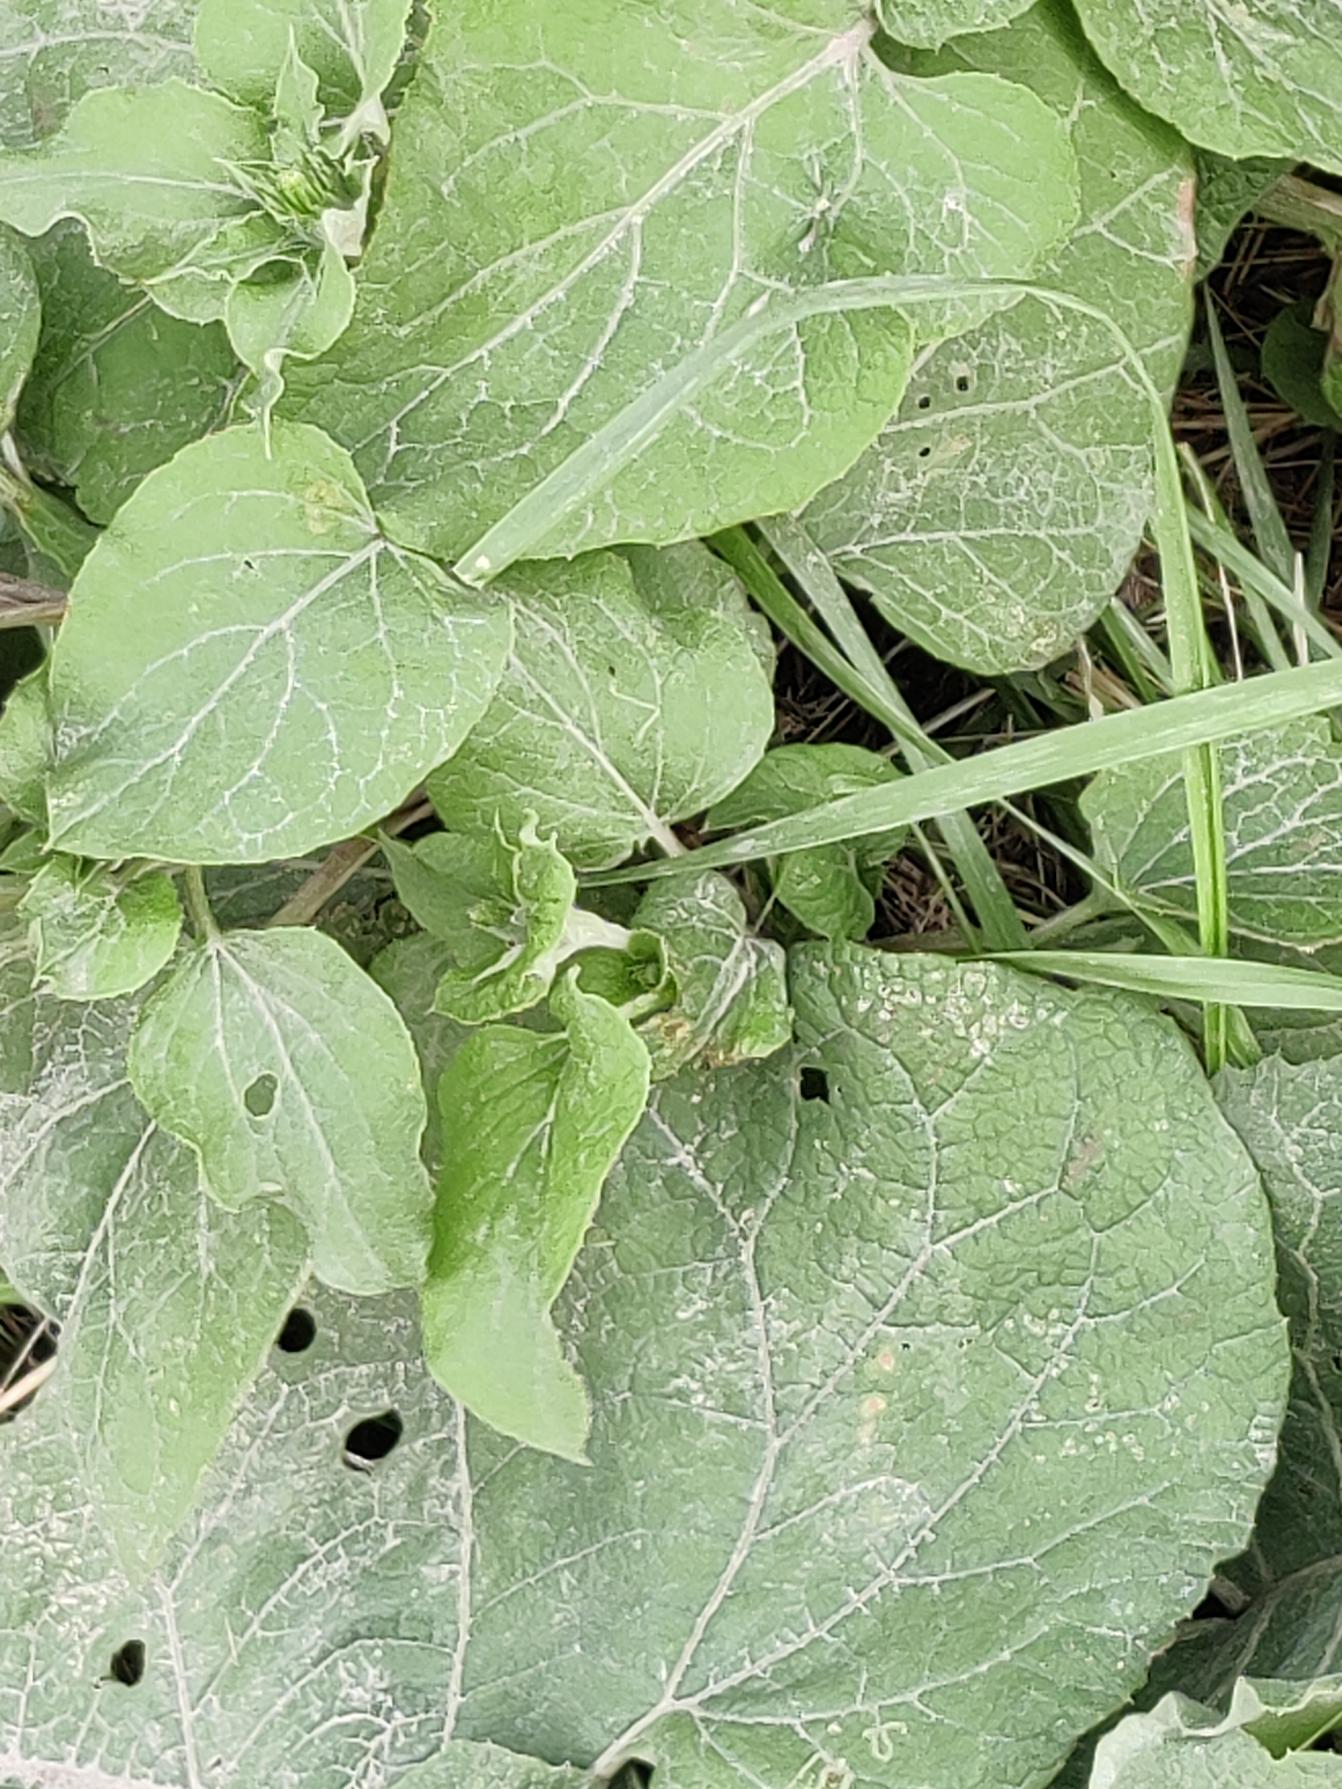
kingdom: Plantae
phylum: Tracheophyta
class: Magnoliopsida
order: Asterales
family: Asteraceae
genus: Arctium
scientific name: Arctium
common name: Burreslægten
